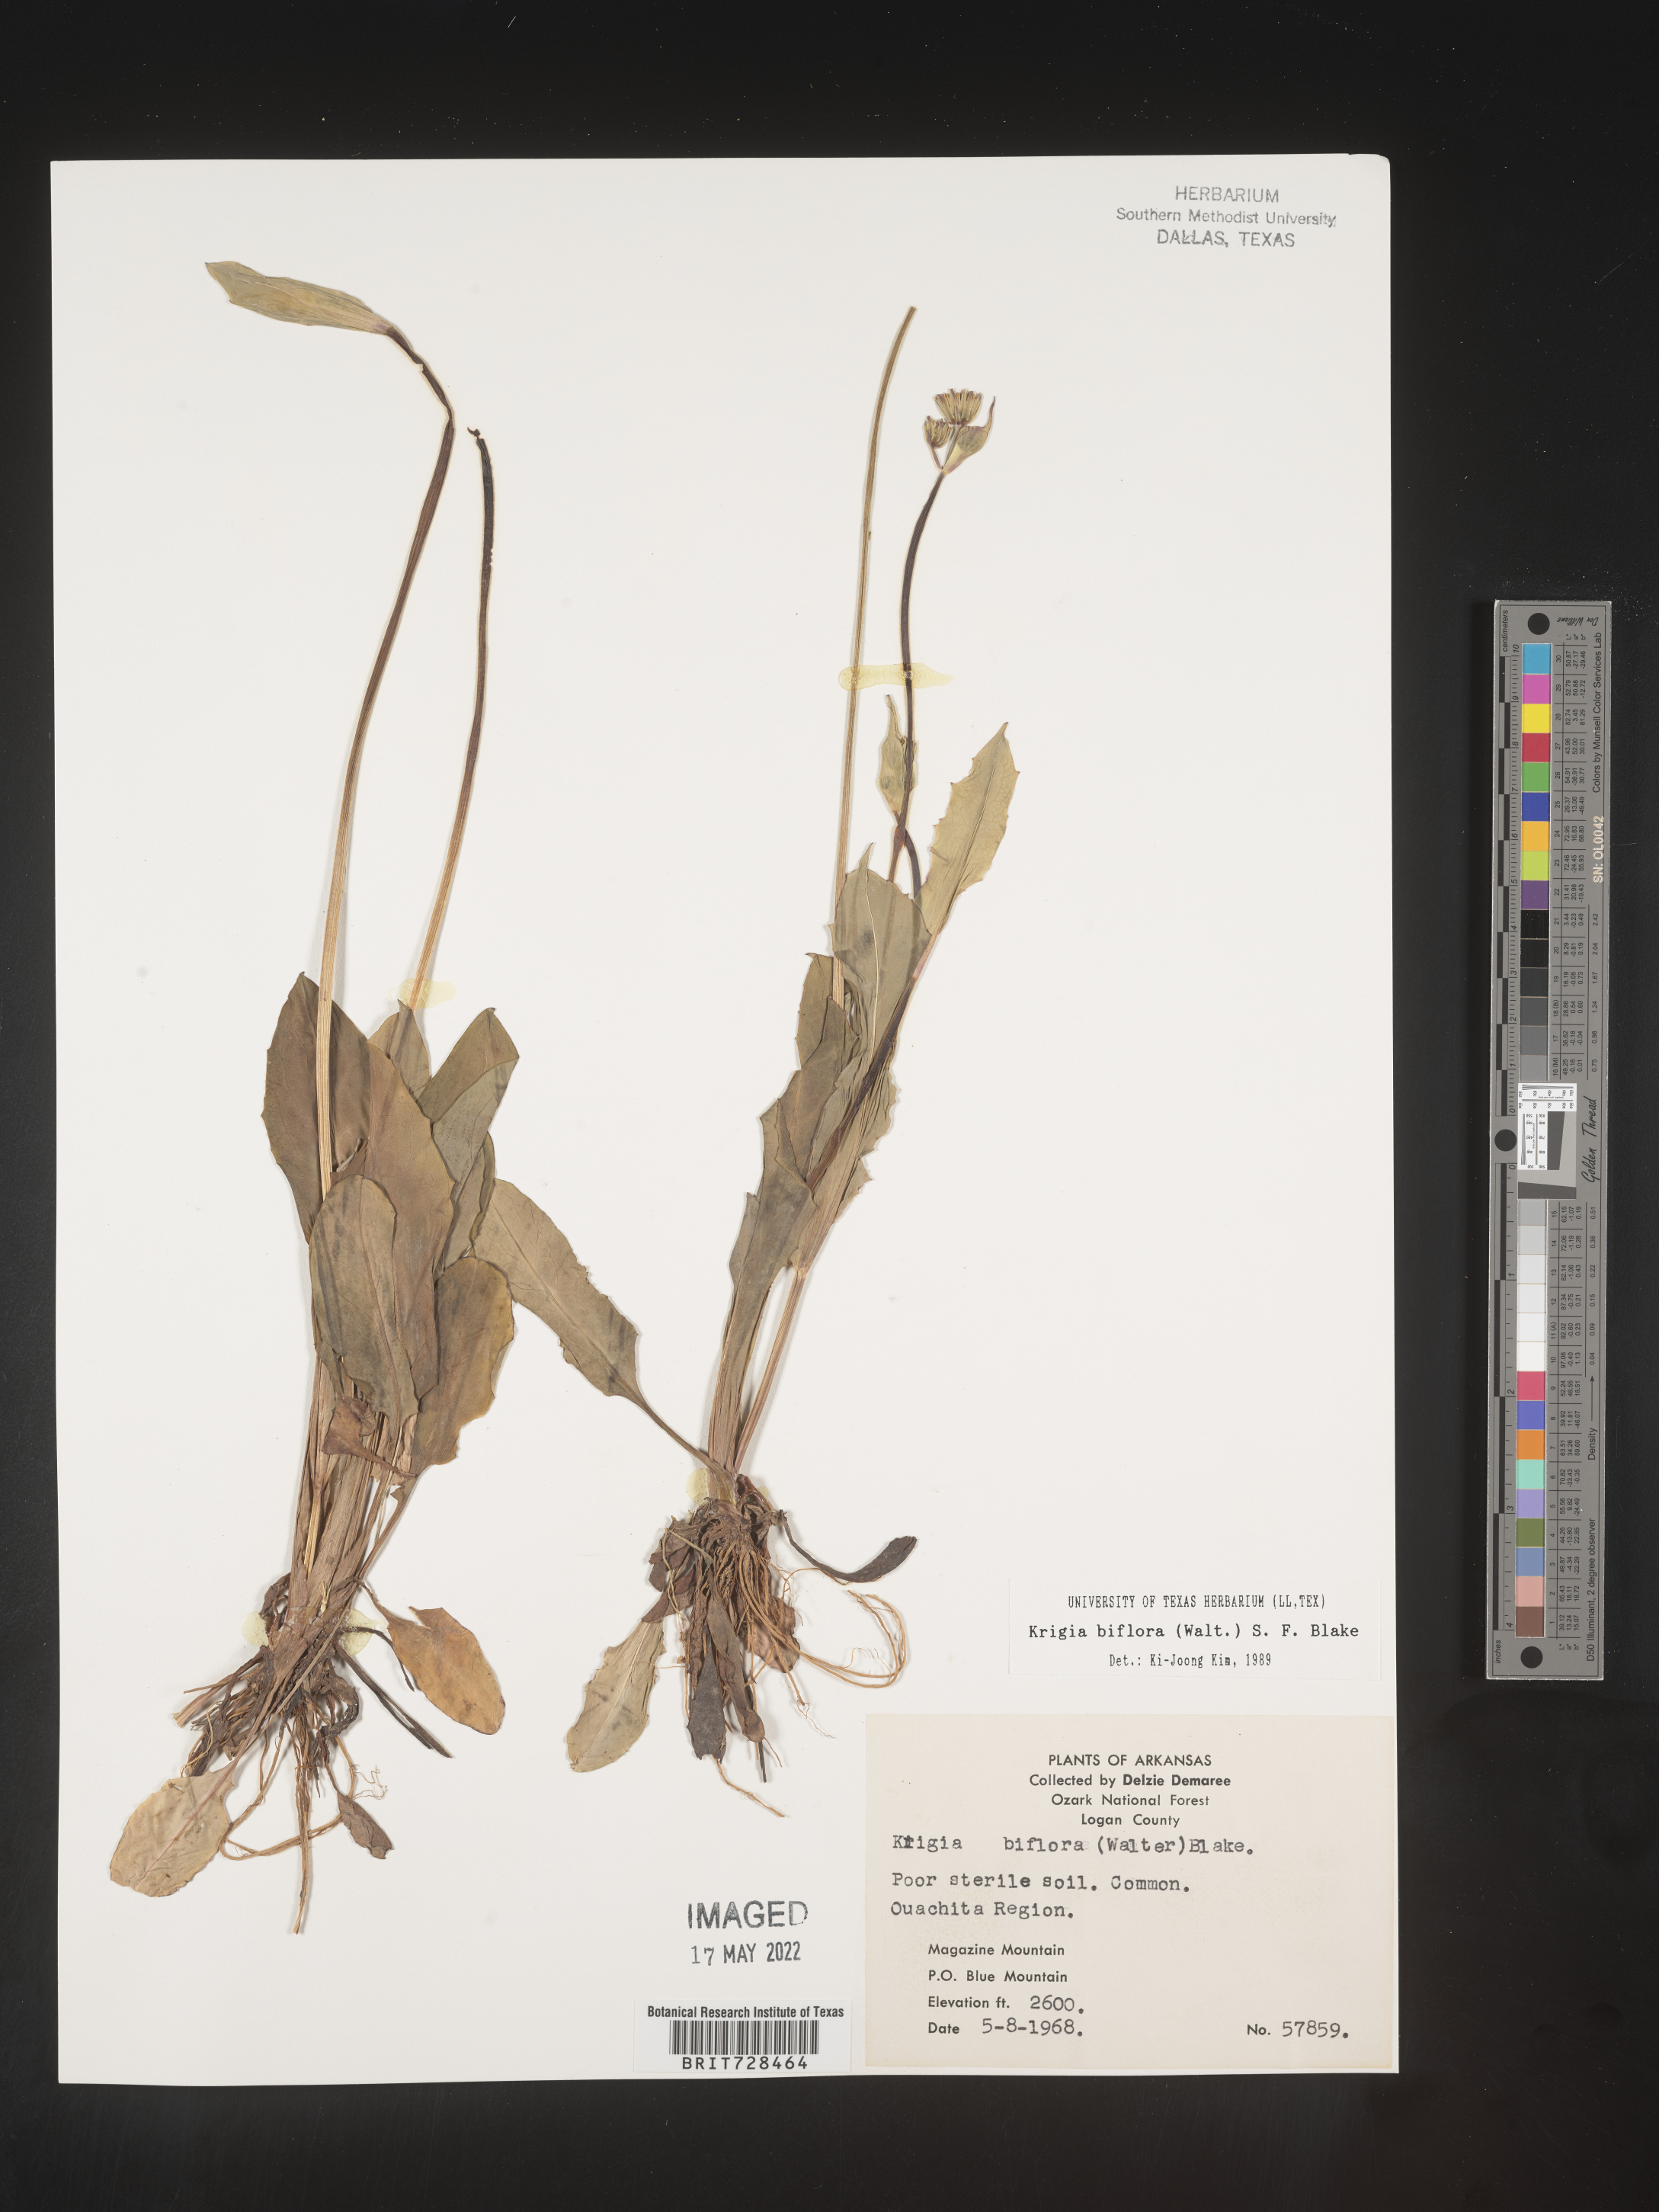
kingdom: Plantae
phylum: Tracheophyta
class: Magnoliopsida
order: Asterales
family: Asteraceae
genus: Krigia
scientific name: Krigia biflora
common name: Orange dwarf-dandelion
